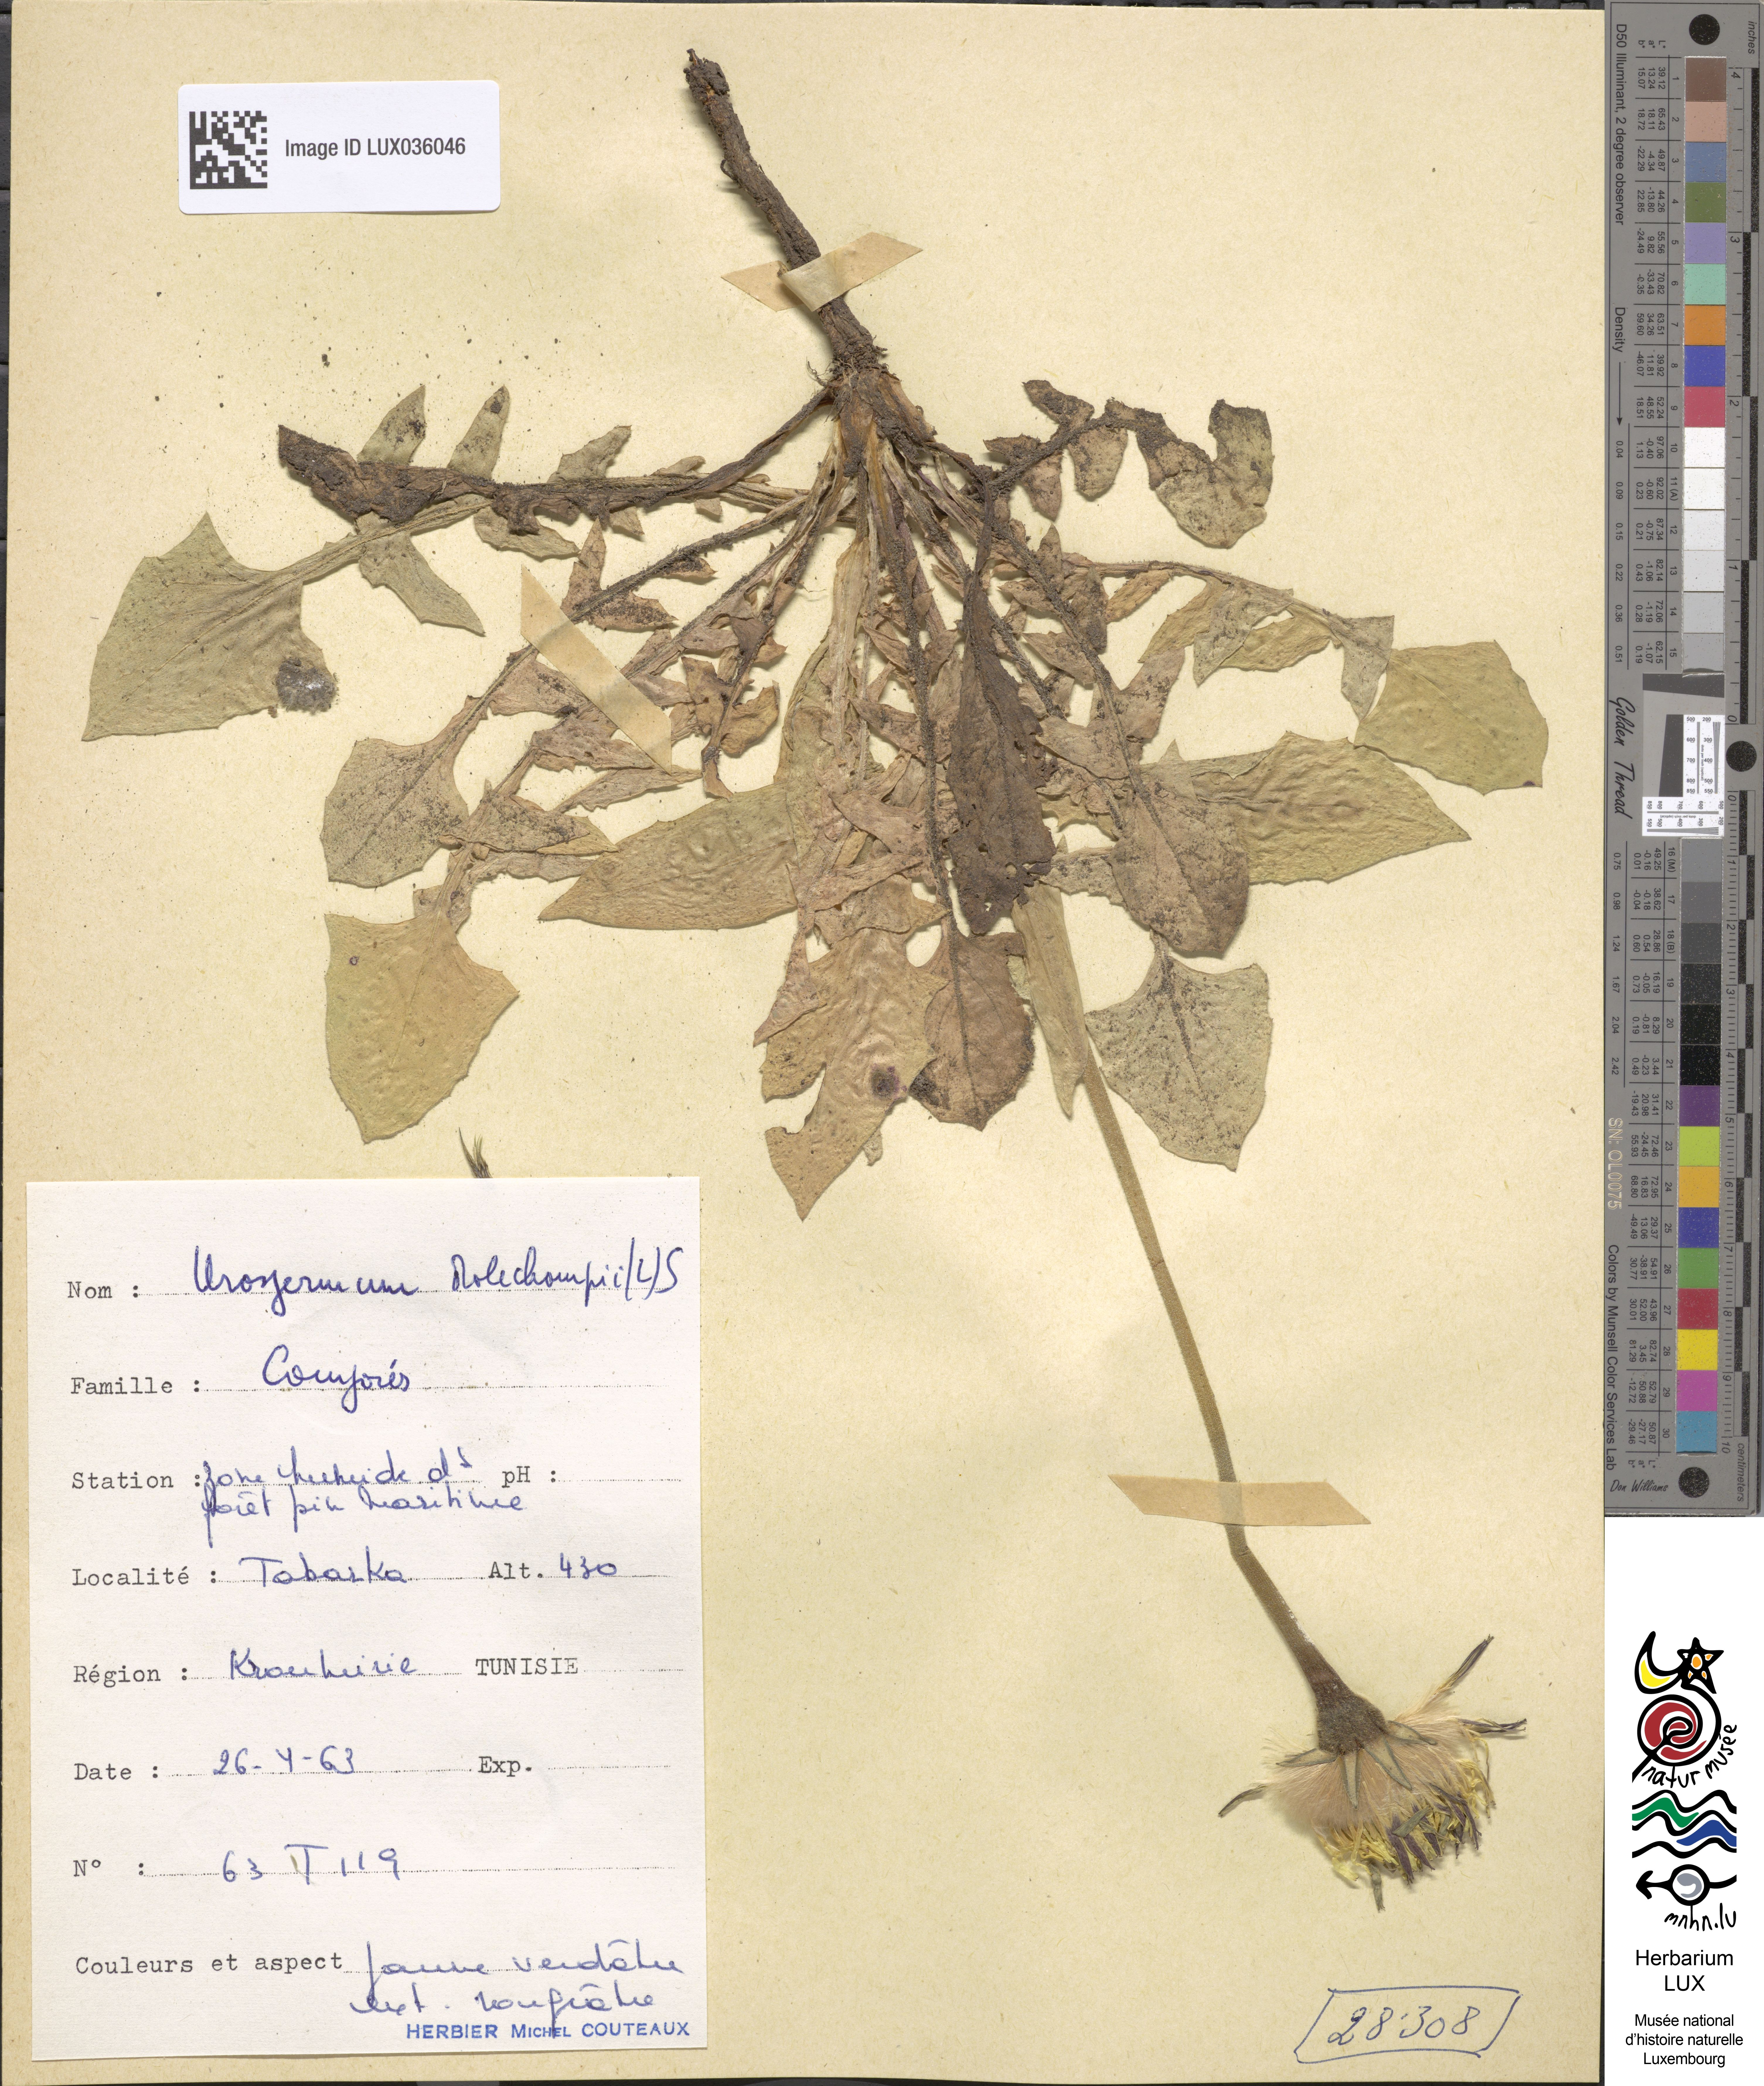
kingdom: Plantae
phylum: Tracheophyta
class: Magnoliopsida
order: Asterales
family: Asteraceae
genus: Urospermum
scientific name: Urospermum dalechampii
